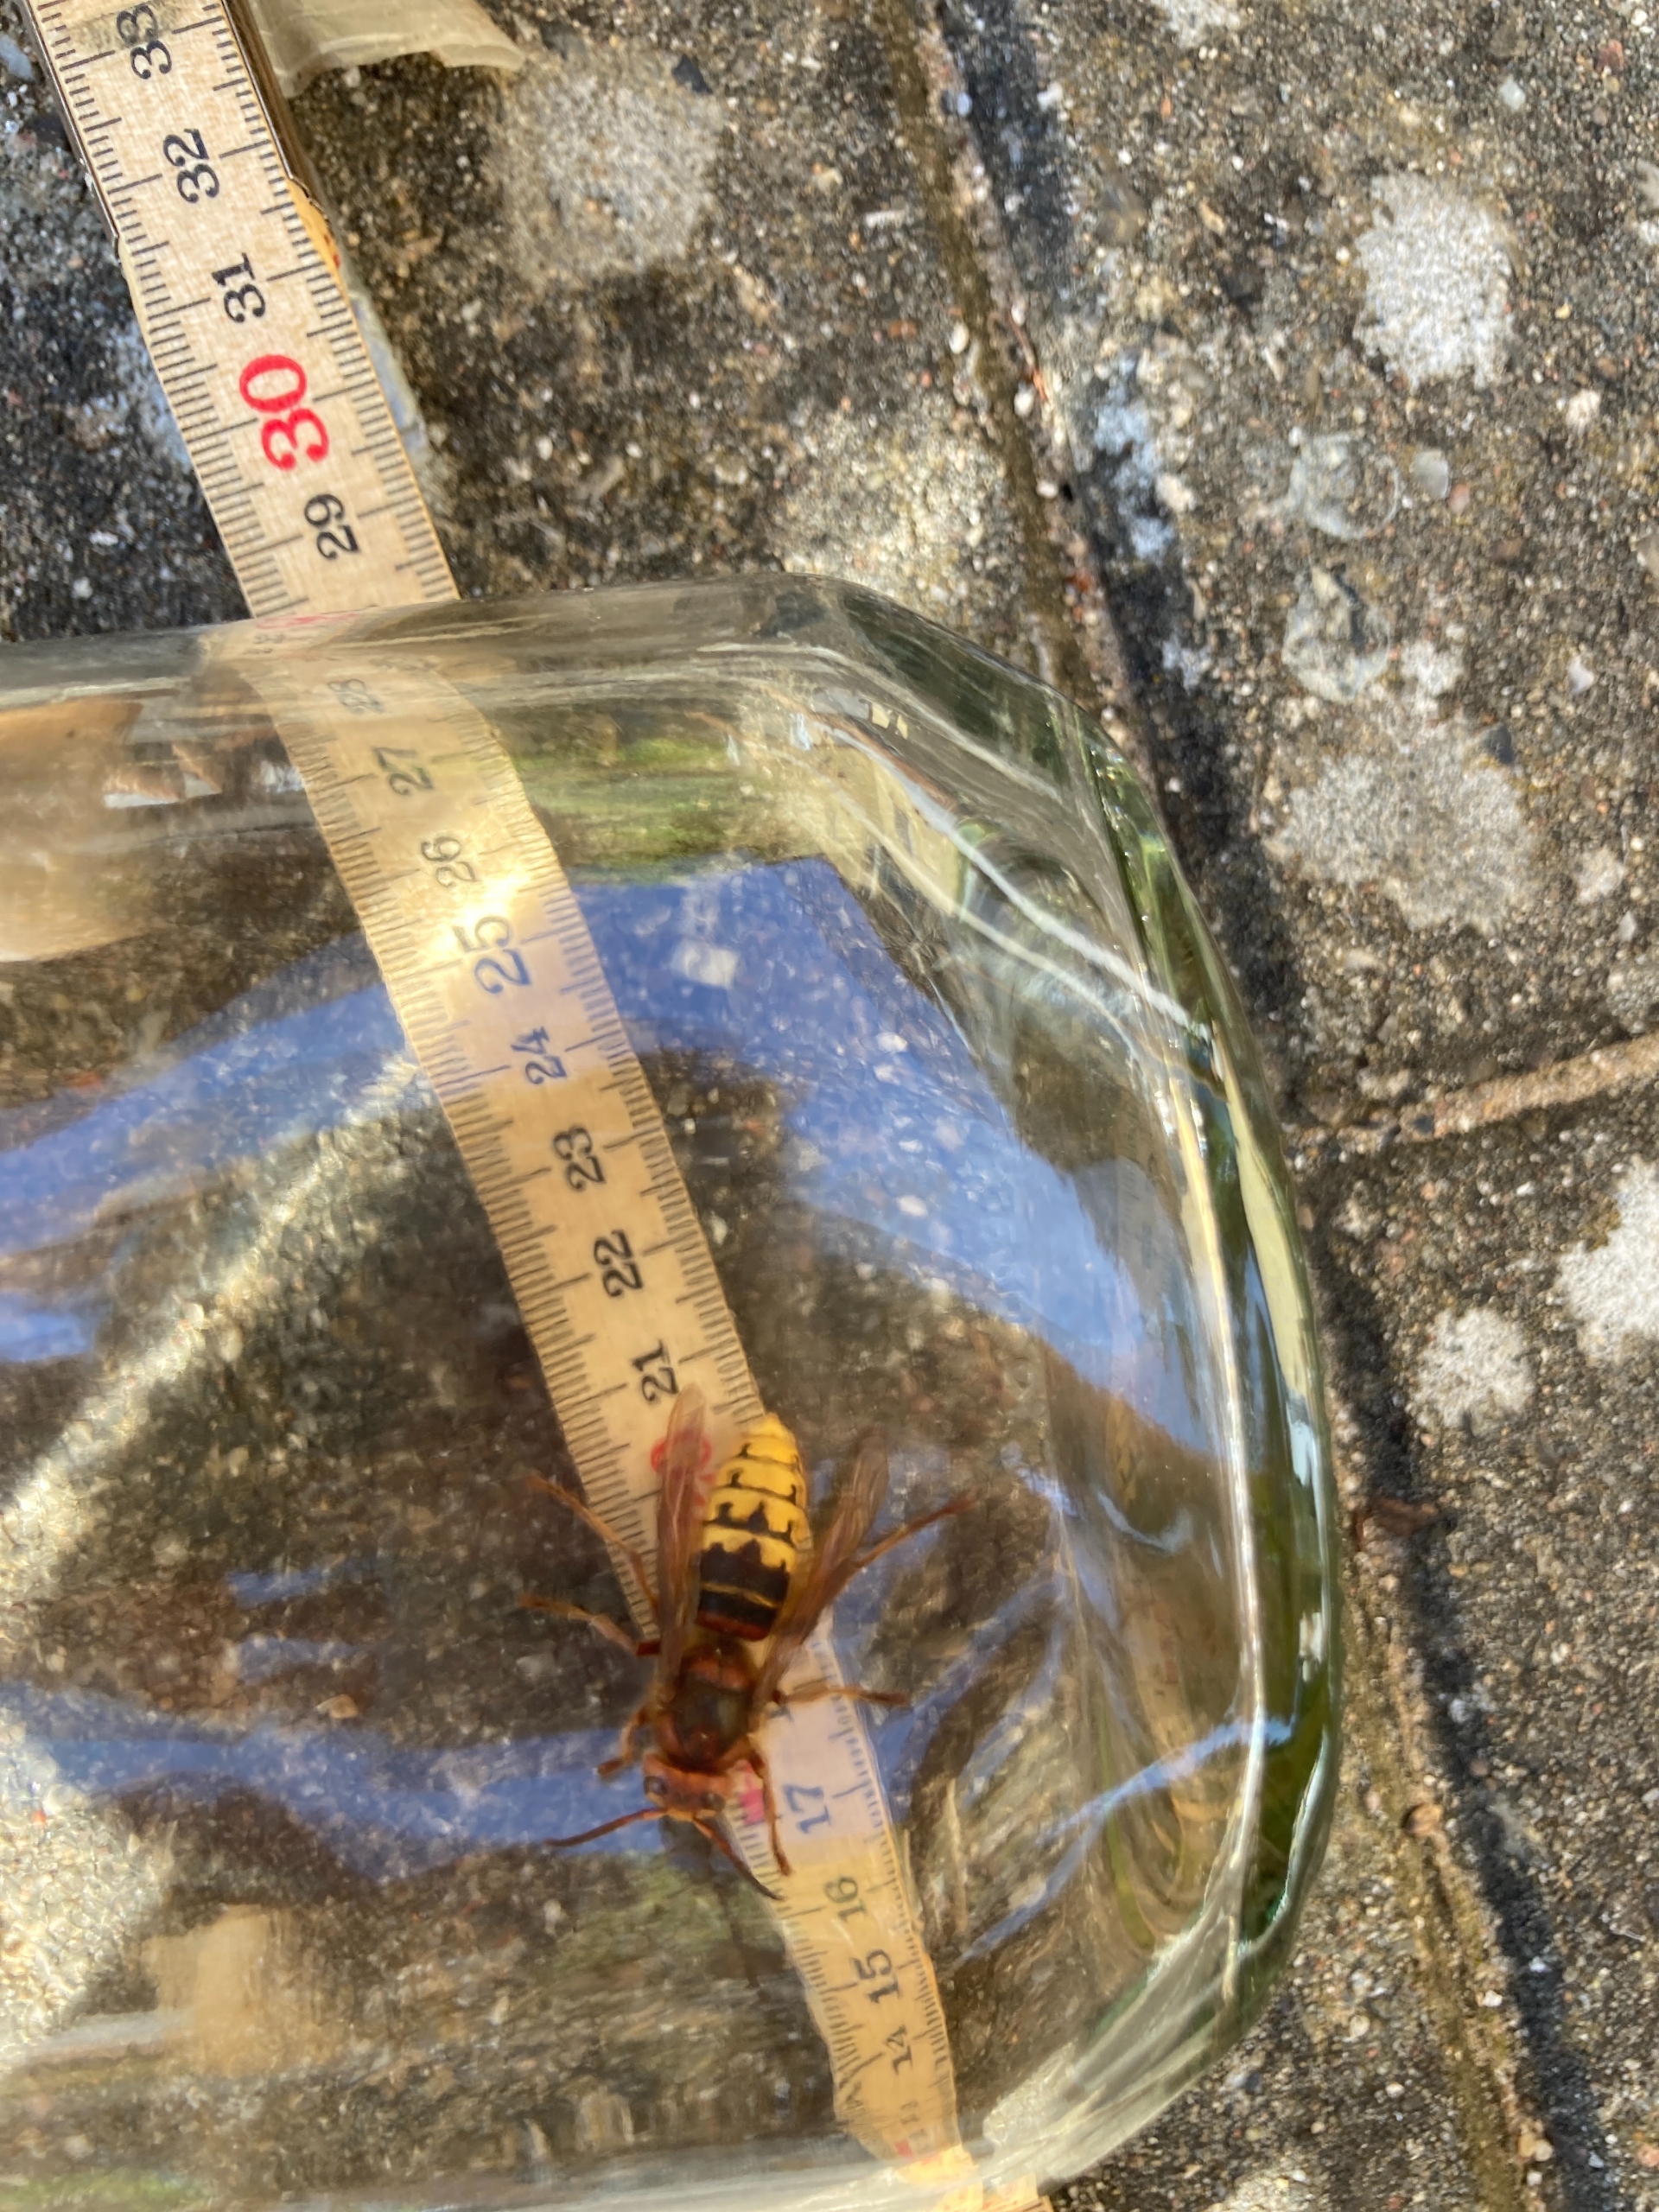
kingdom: Animalia
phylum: Arthropoda
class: Insecta
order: Hymenoptera
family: Vespidae
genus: Vespa
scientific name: Vespa crabro
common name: Stor gedehams
